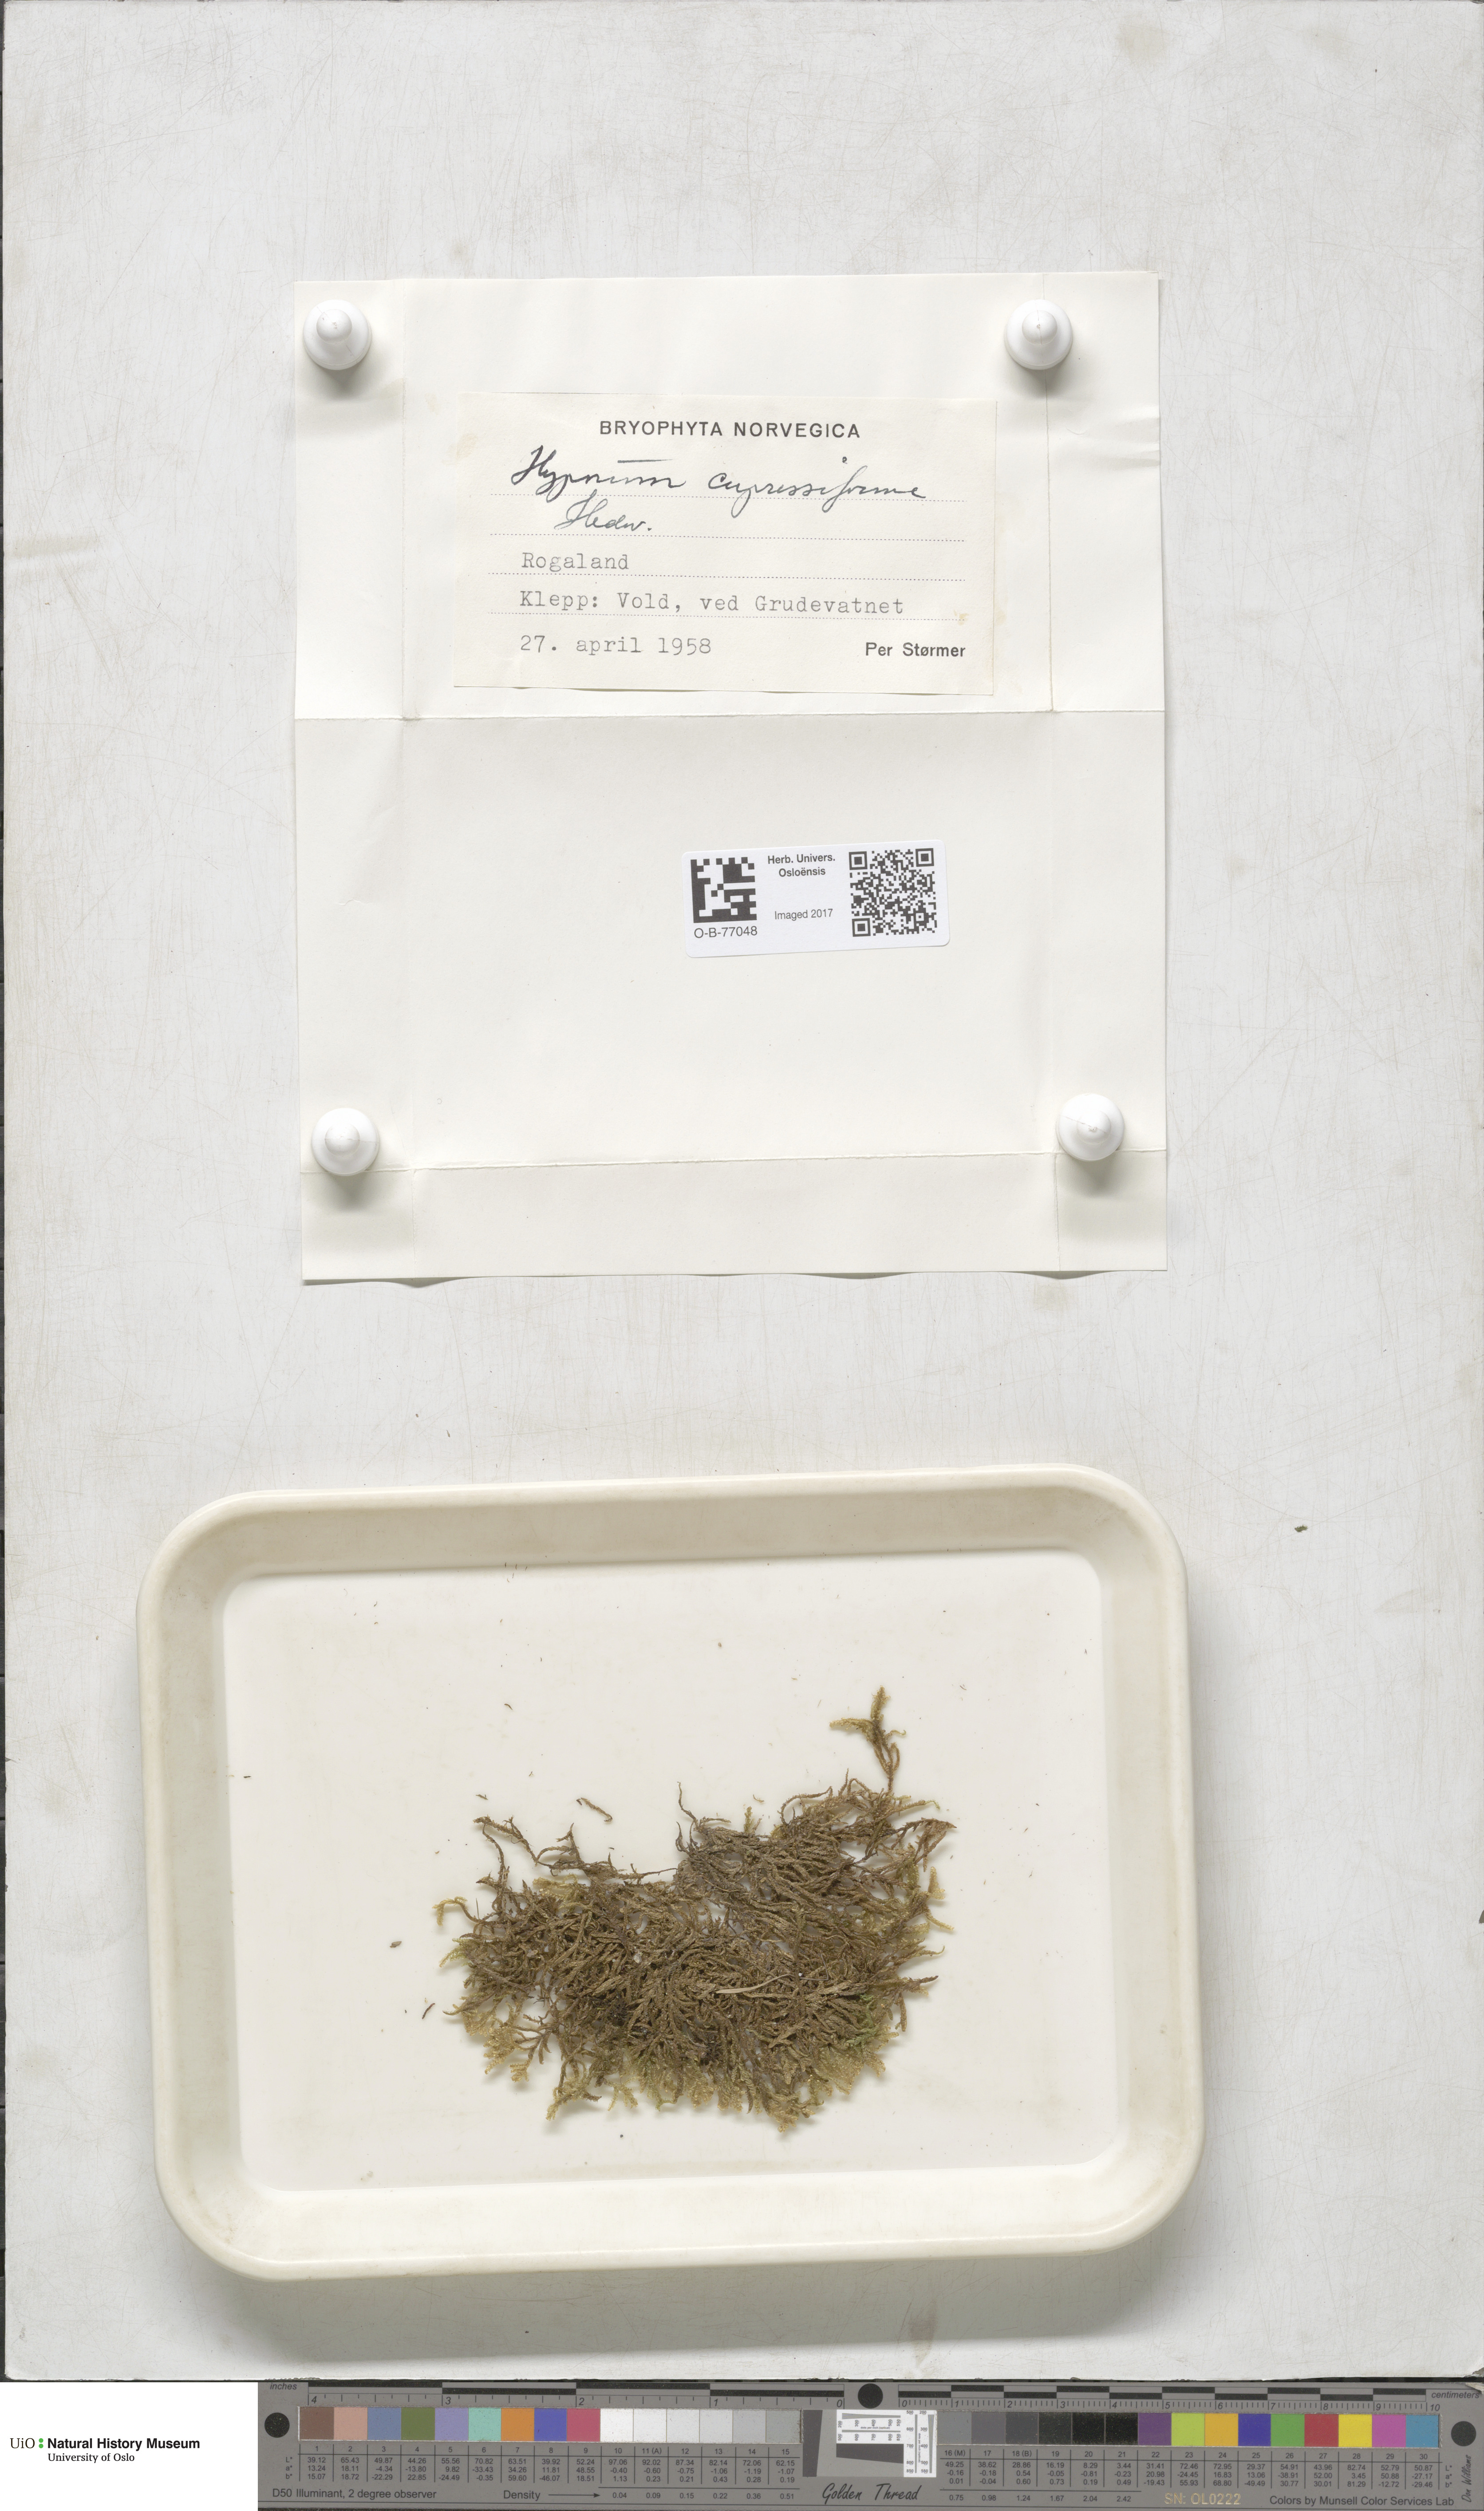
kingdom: Plantae
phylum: Bryophyta
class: Bryopsida
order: Hypnales
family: Hypnaceae
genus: Hypnum
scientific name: Hypnum cupressiforme
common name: Cypress-leaved plait-moss
